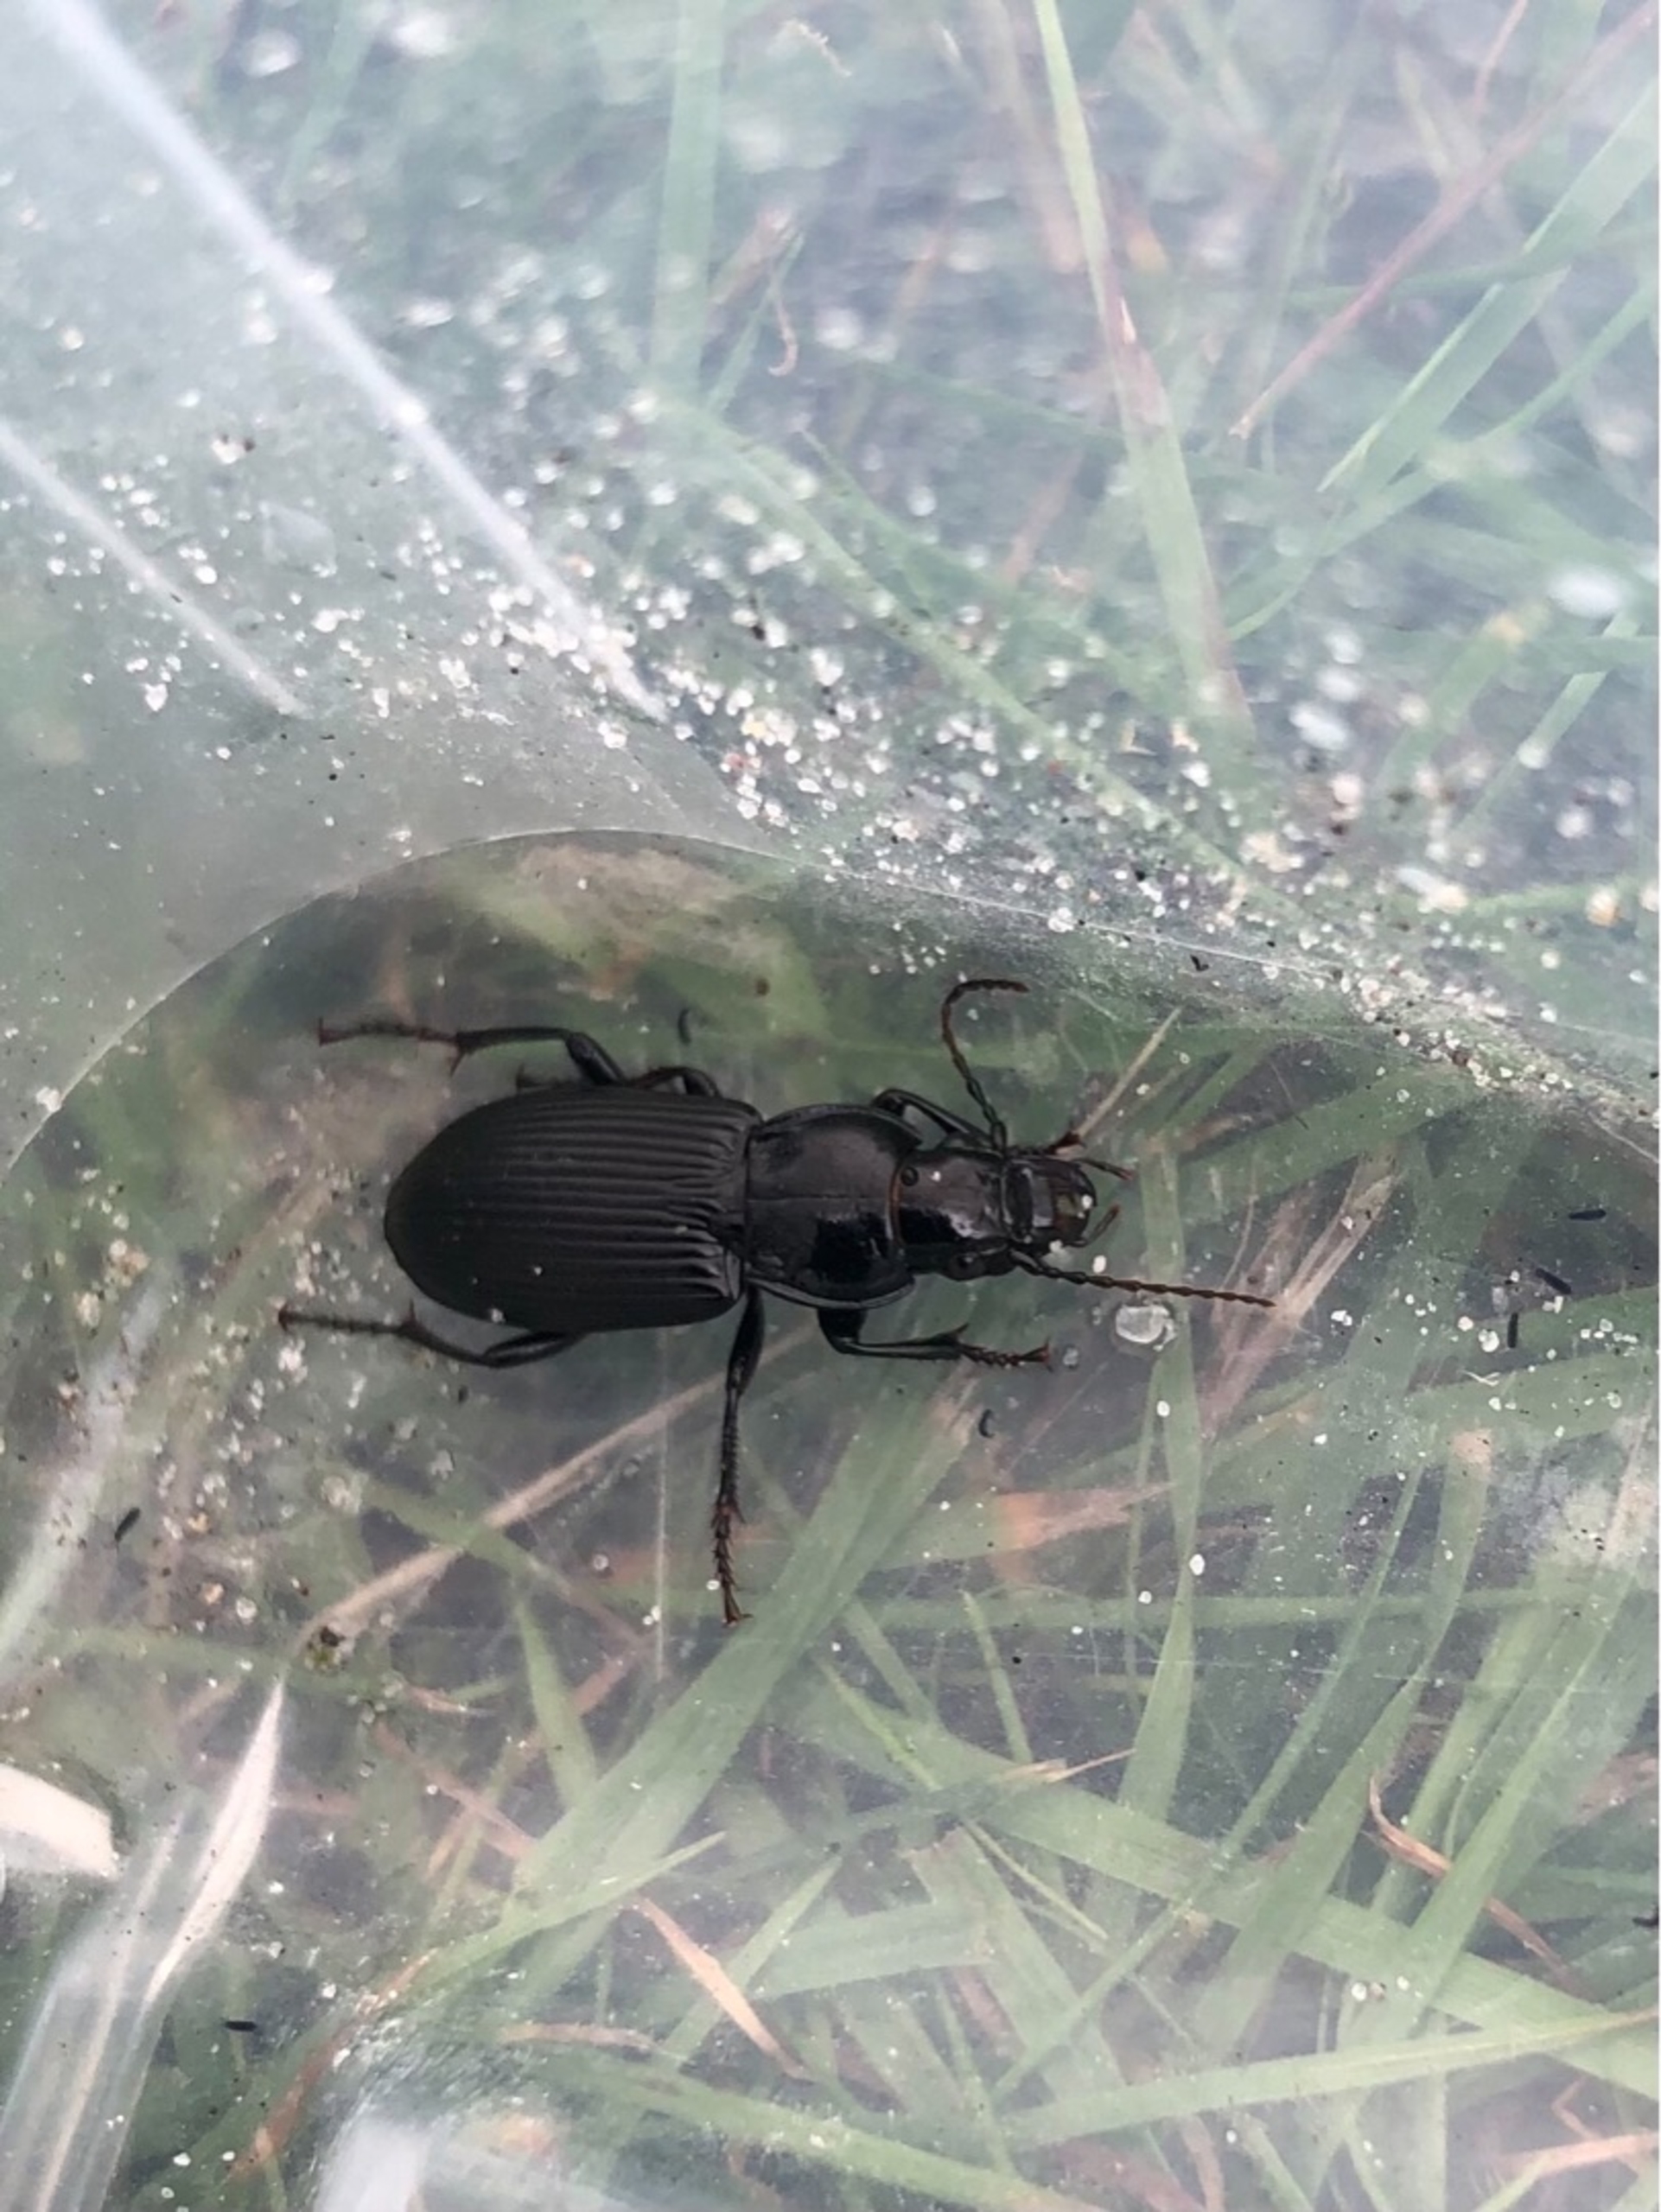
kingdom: Animalia
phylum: Arthropoda
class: Insecta
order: Coleoptera
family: Carabidae
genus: Pterostichus
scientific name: Pterostichus melanarius
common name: Markjordløber
